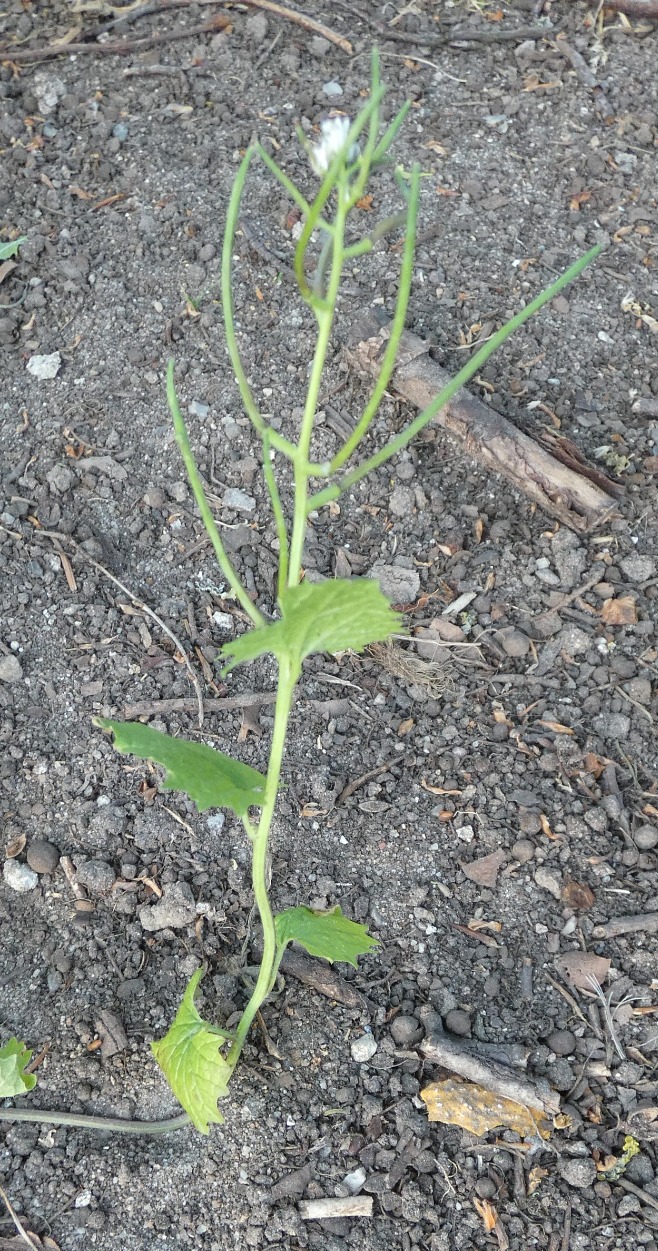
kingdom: Plantae
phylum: Tracheophyta
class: Magnoliopsida
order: Brassicales
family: Brassicaceae
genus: Alliaria
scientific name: Alliaria petiolata
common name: Løgkarse
